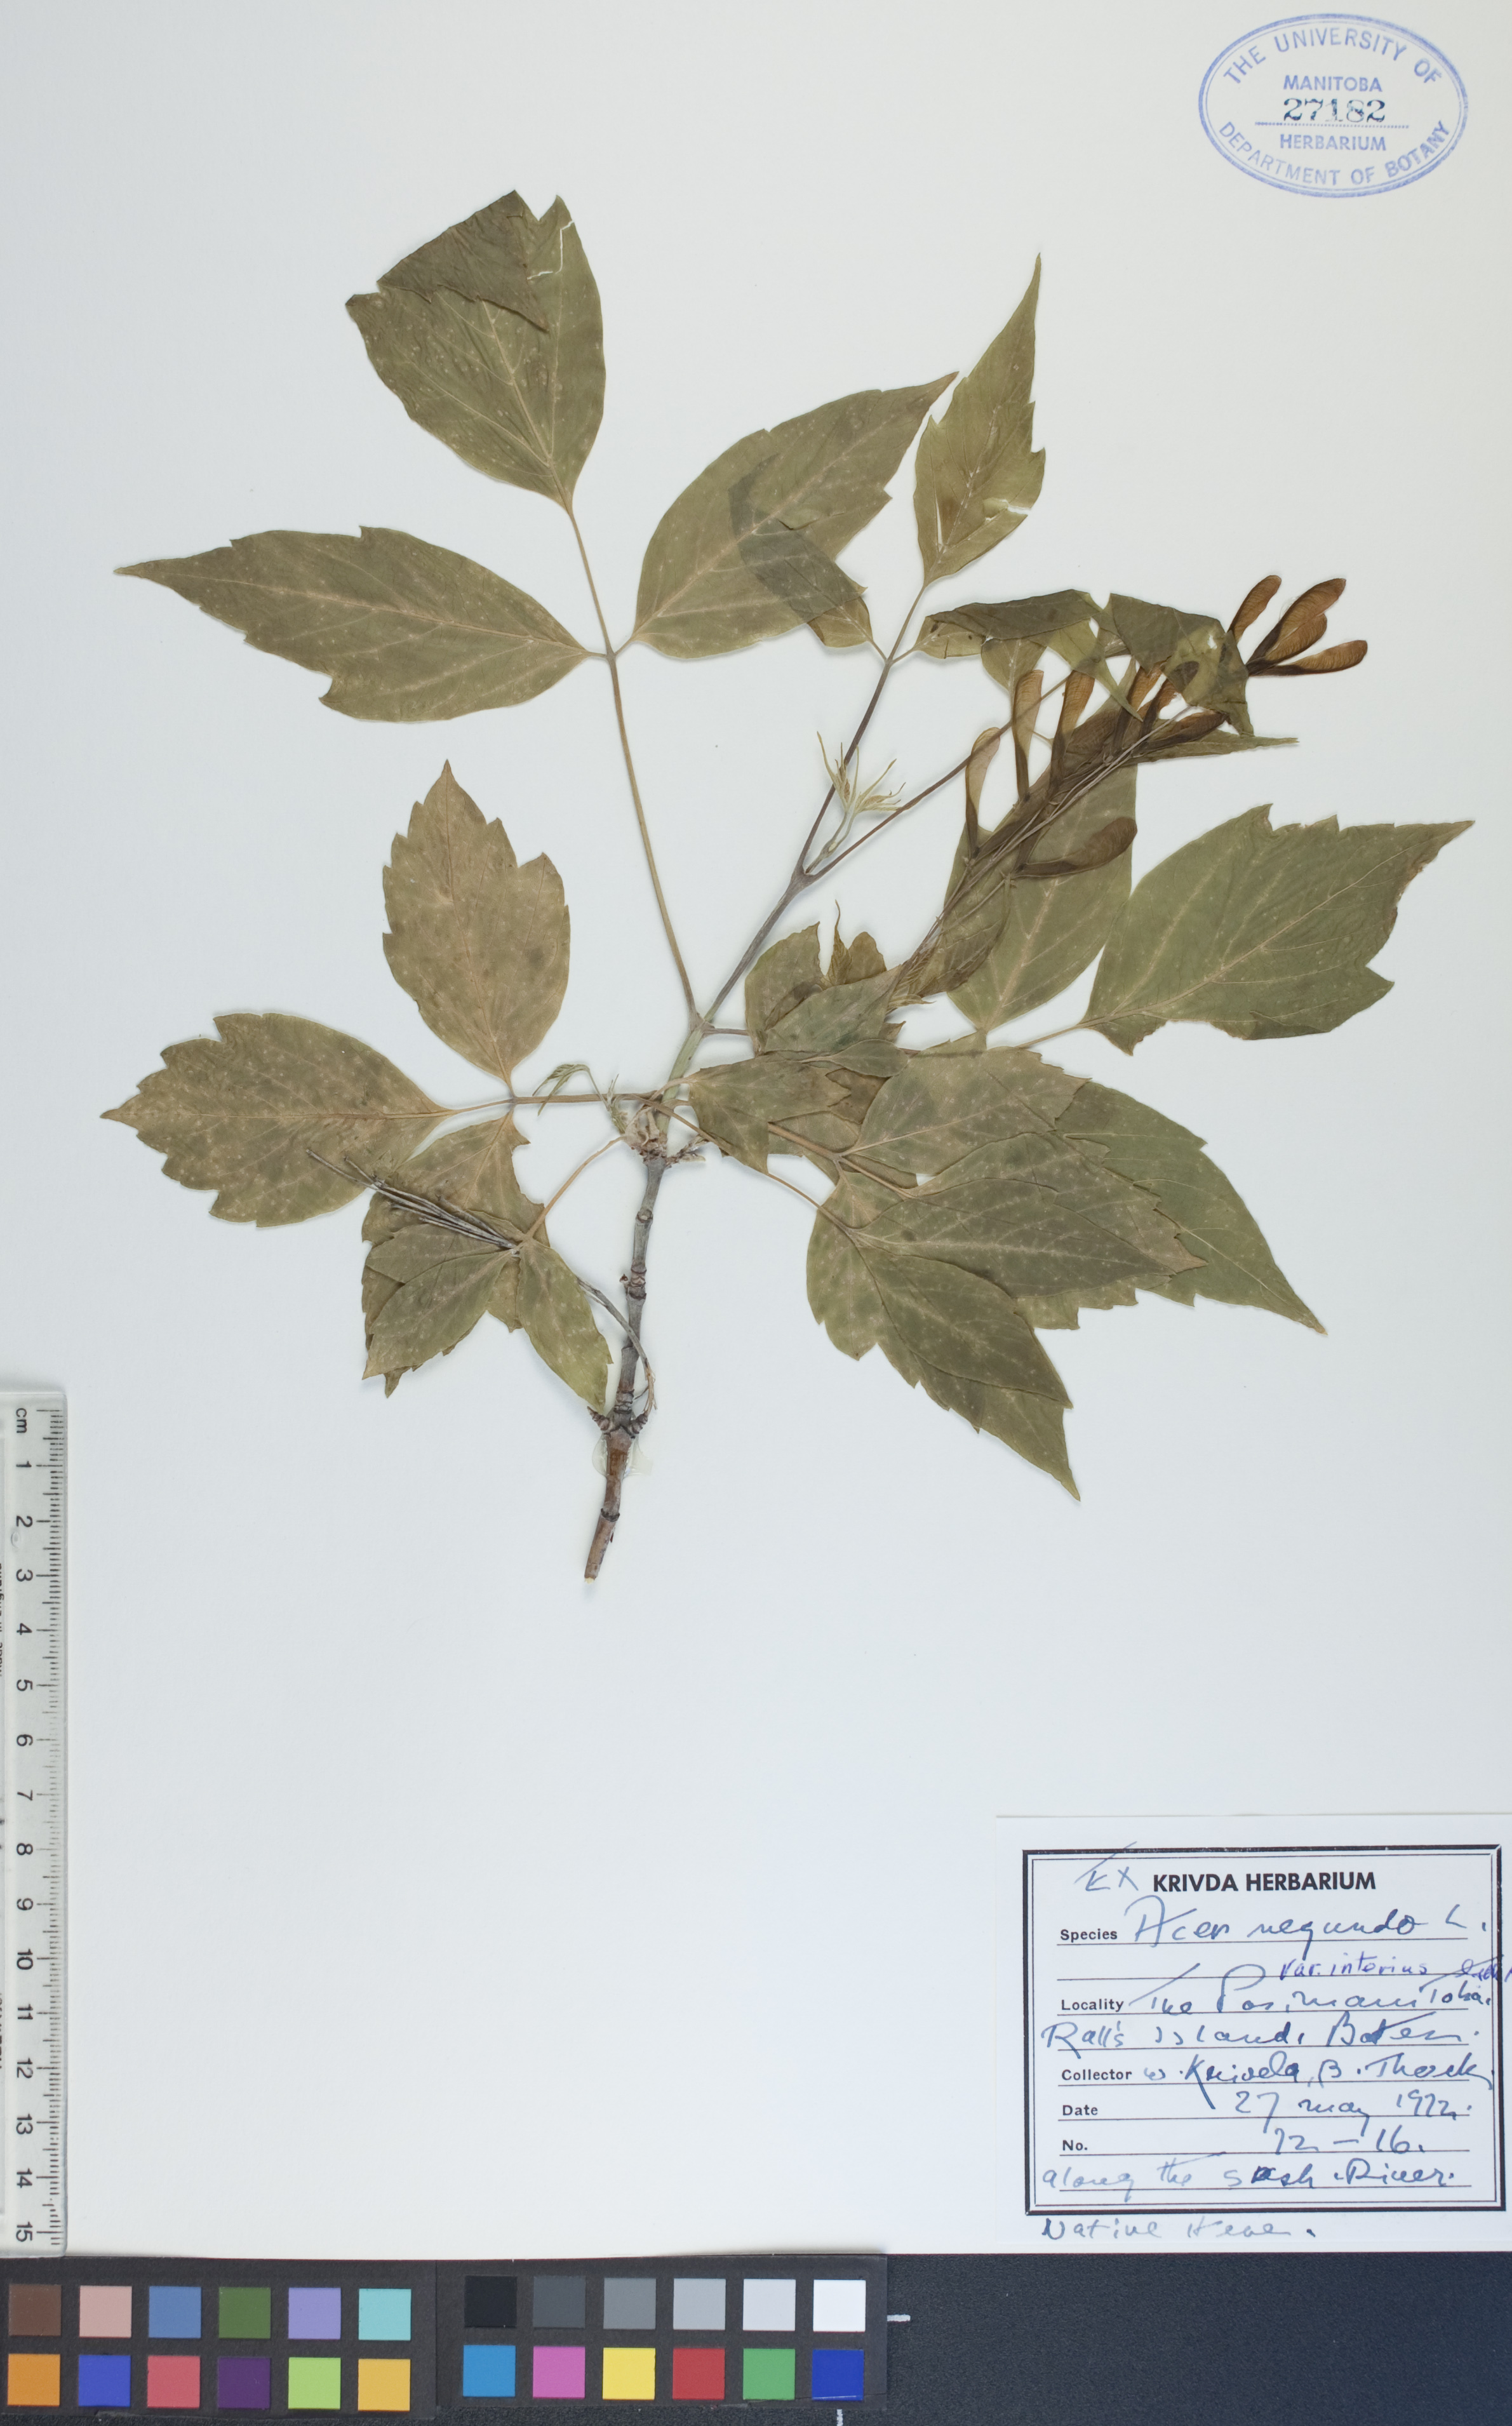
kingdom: Plantae
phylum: Tracheophyta
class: Magnoliopsida
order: Sapindales
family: Sapindaceae
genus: Acer
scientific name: Acer negundo
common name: Ashleaf maple
